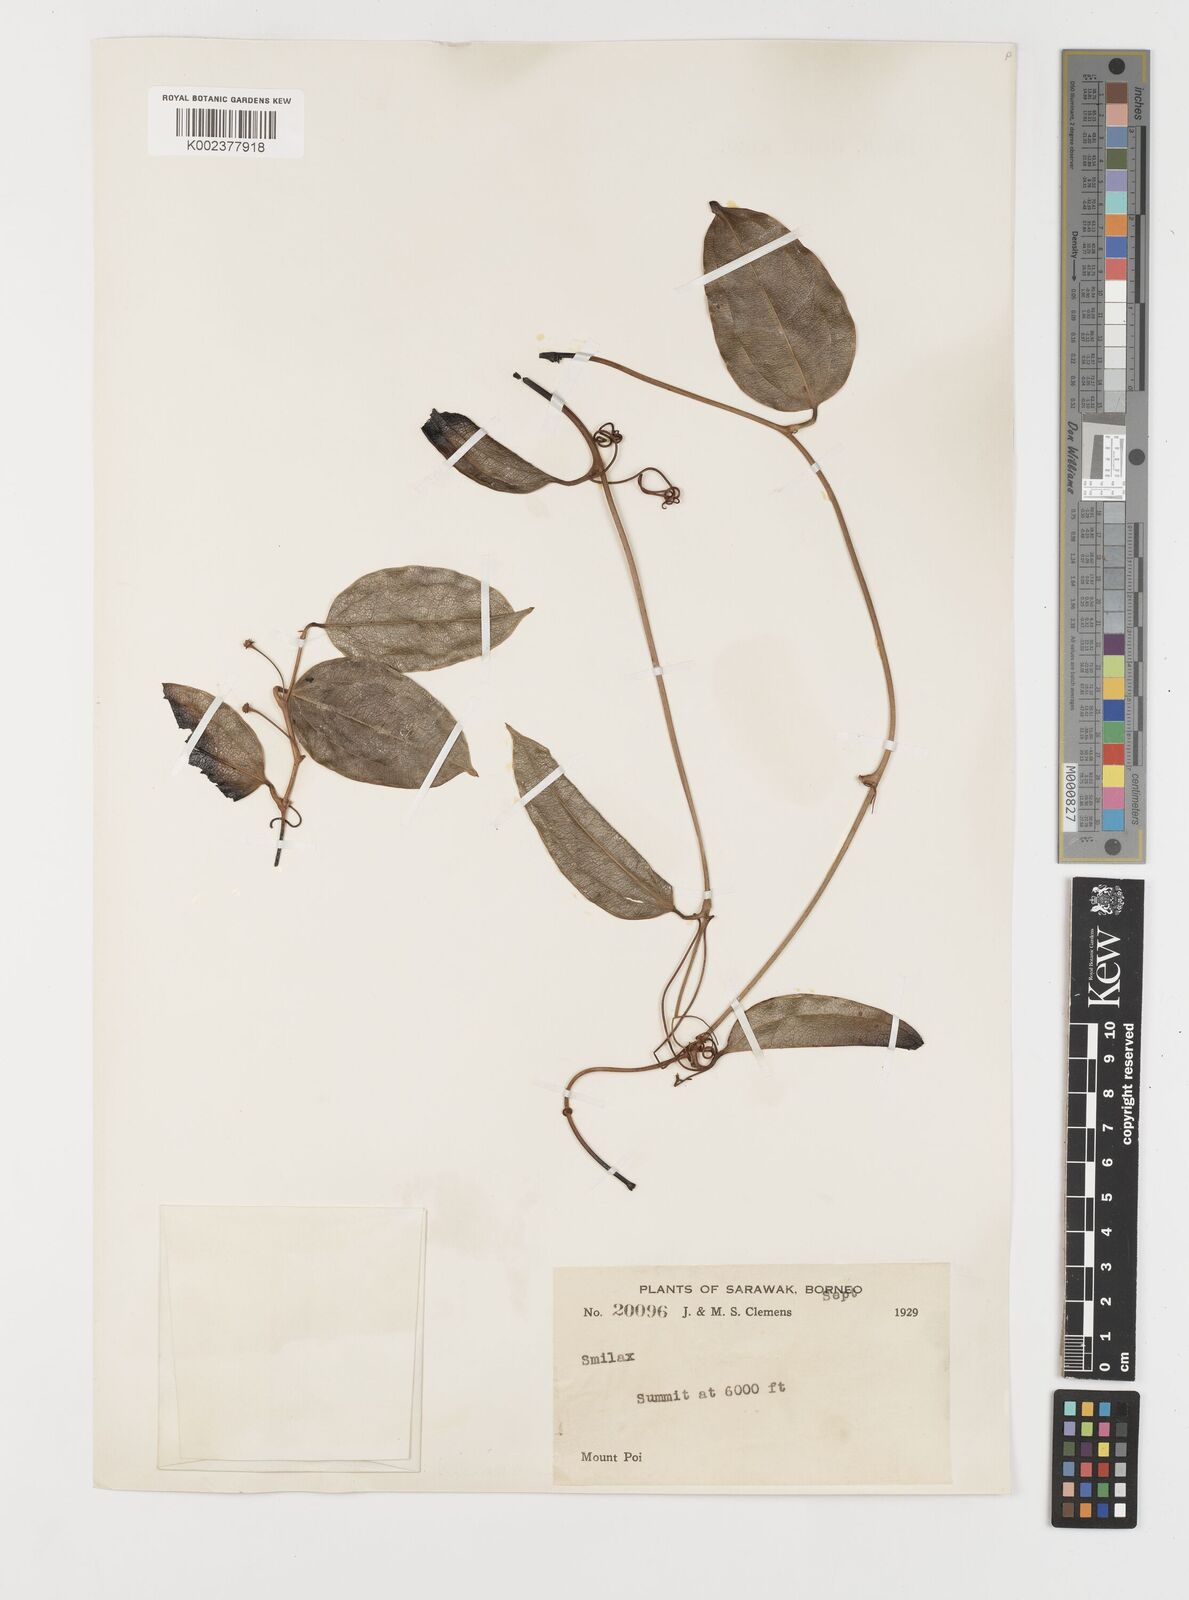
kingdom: Plantae
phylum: Tracheophyta
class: Liliopsida
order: Liliales
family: Smilacaceae
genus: Smilax
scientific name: Smilax
